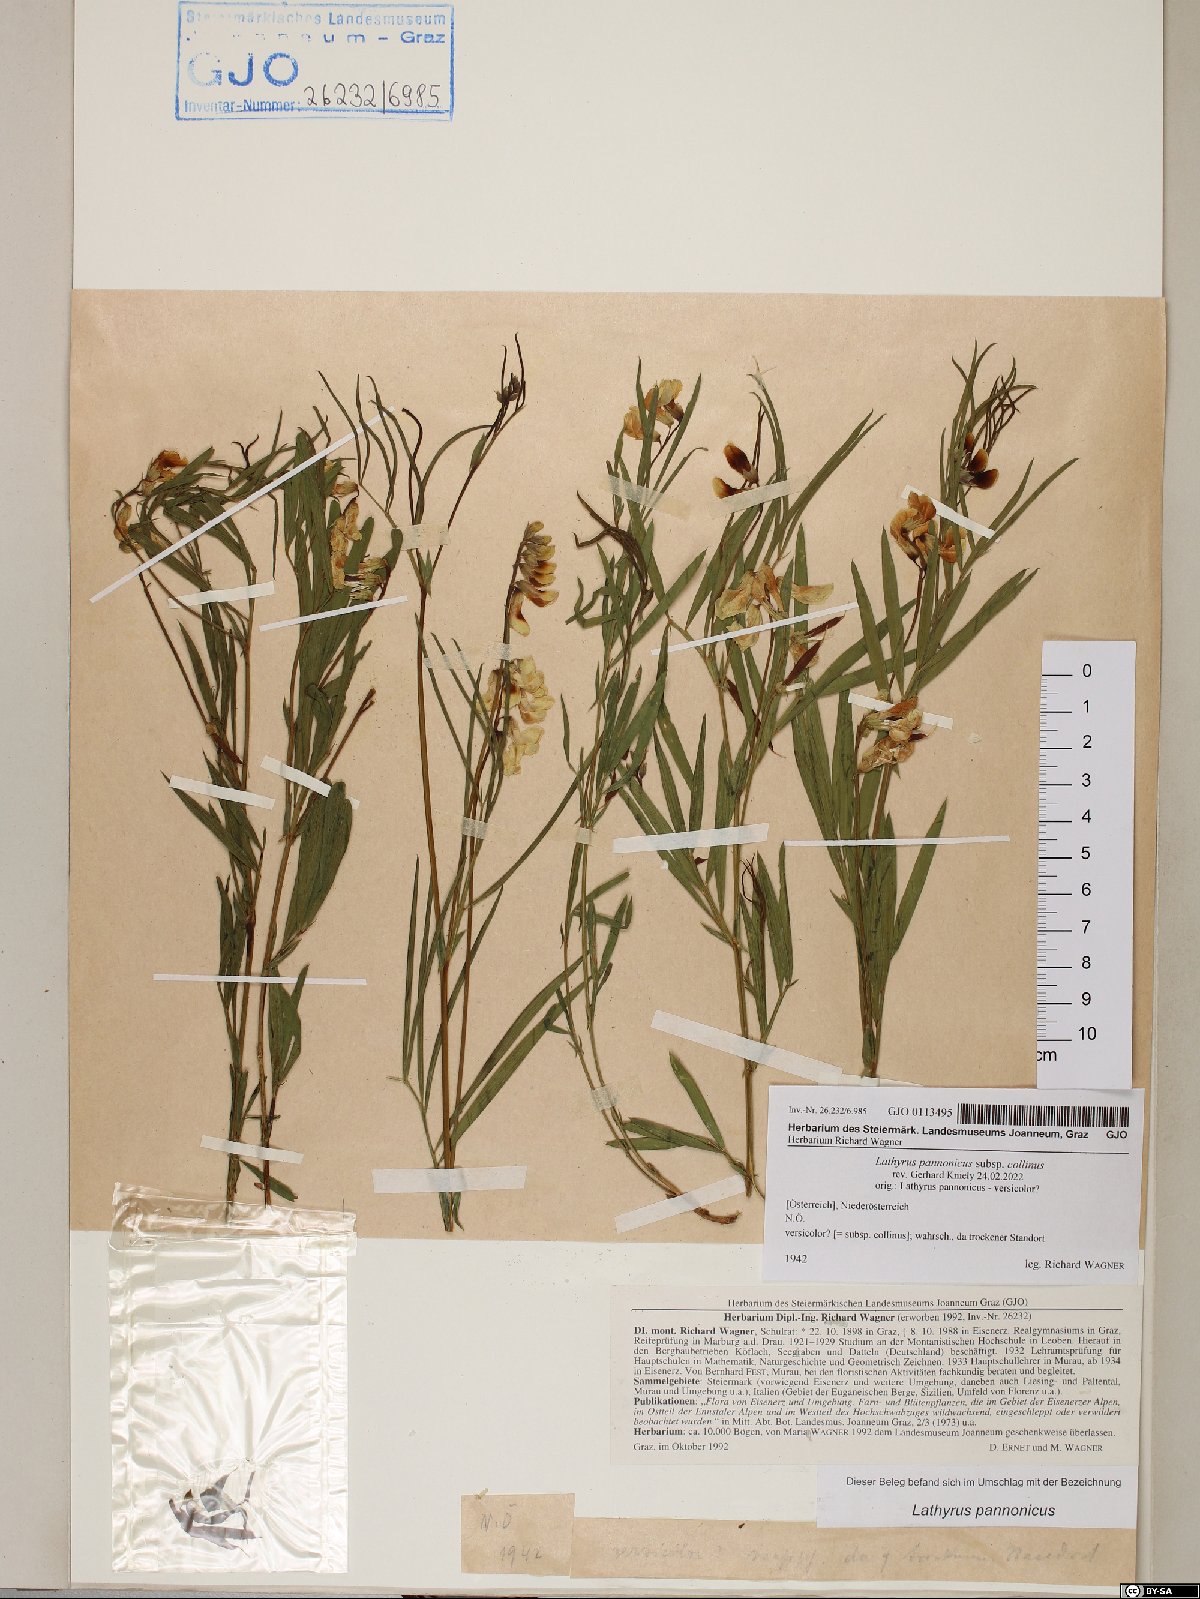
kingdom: Plantae
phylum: Tracheophyta
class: Magnoliopsida
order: Fabales
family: Fabaceae
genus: Lathyrus
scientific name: Lathyrus pannonicus
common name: Pea
